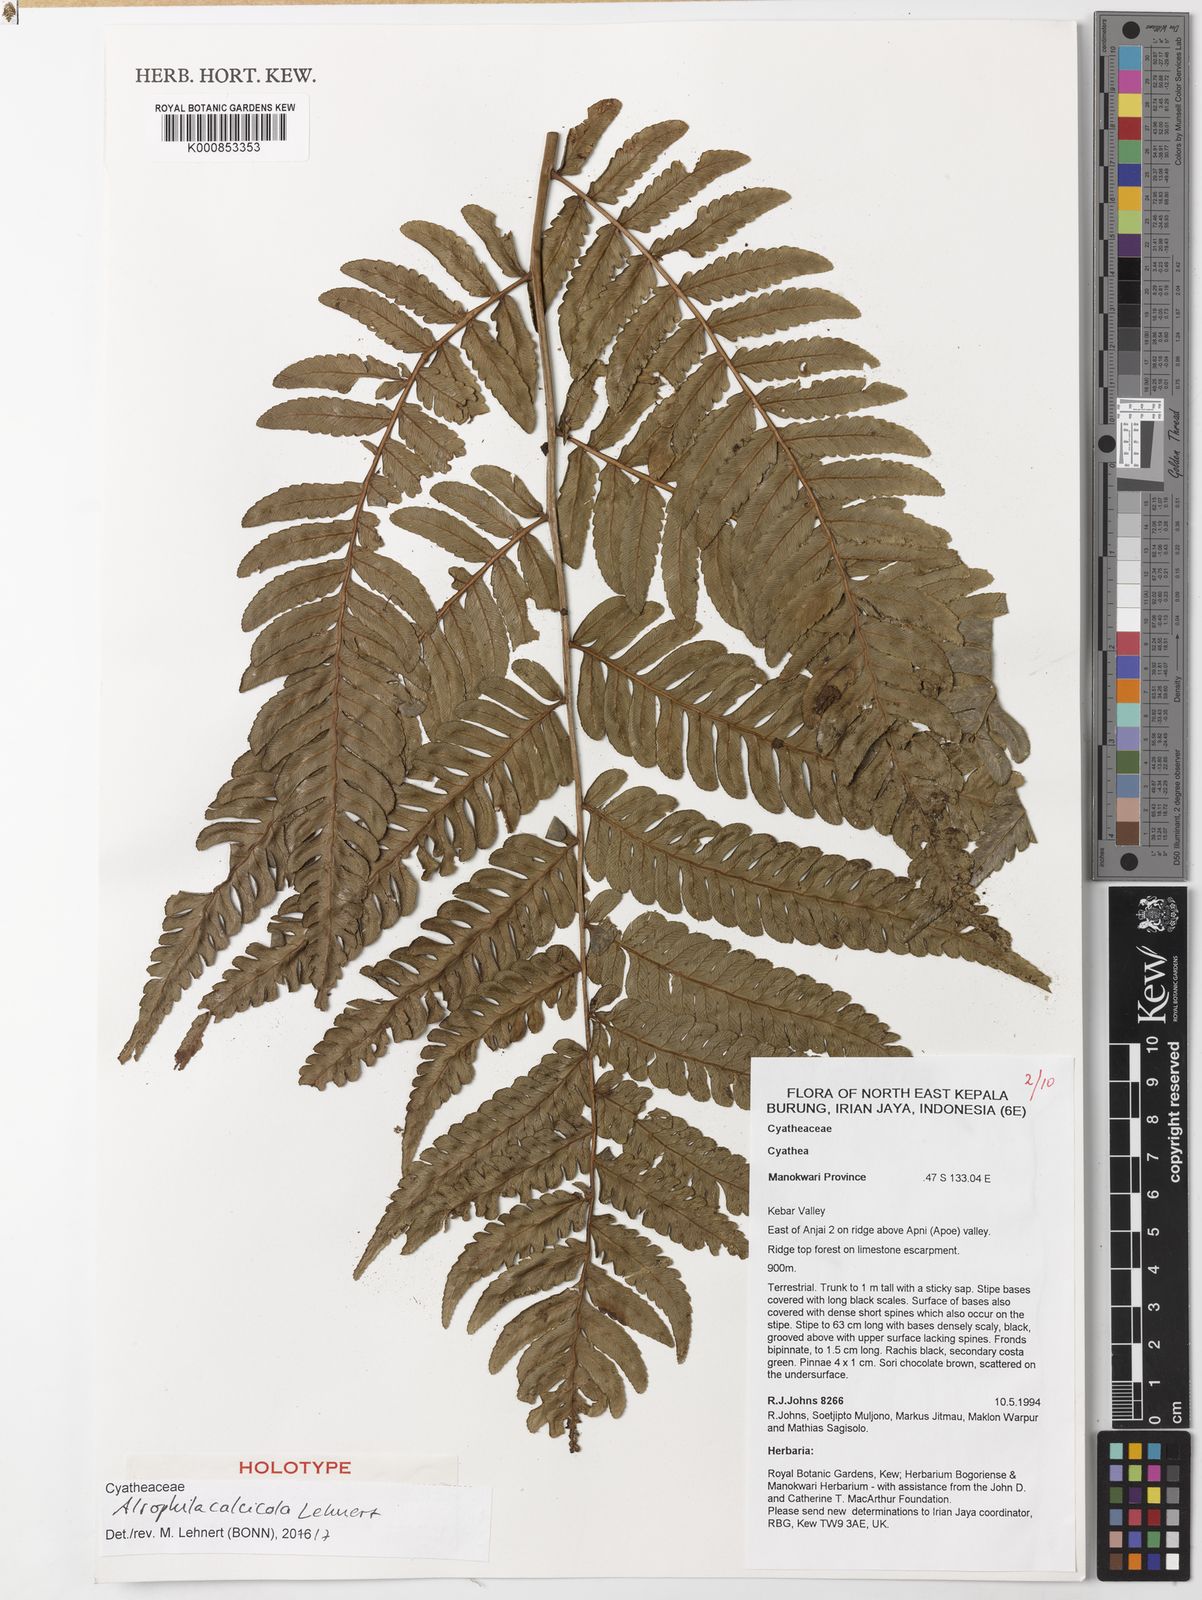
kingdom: Plantae
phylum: Tracheophyta
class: Polypodiopsida
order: Cyatheales
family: Cyatheaceae
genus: Alsophila
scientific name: Alsophila calcicola
